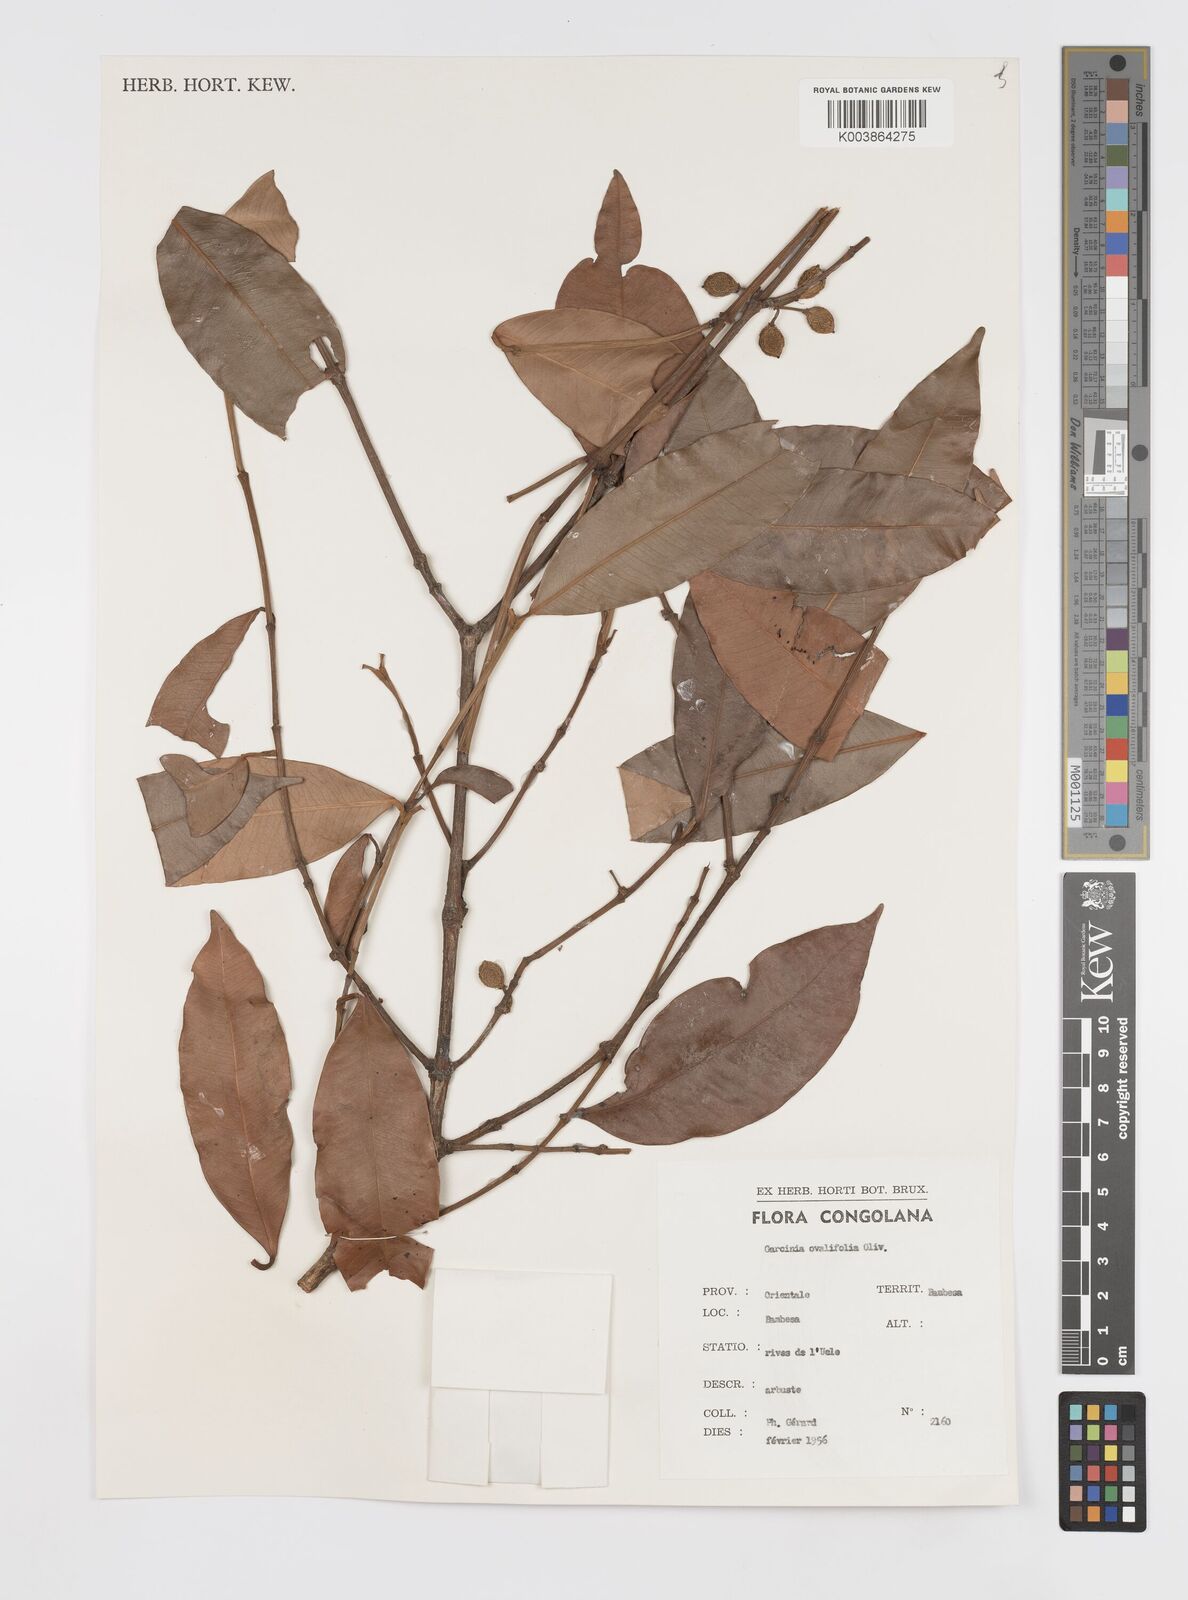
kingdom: Plantae
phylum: Tracheophyta
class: Magnoliopsida
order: Malpighiales
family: Clusiaceae
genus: Garcinia
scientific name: Garcinia ovalifolia
